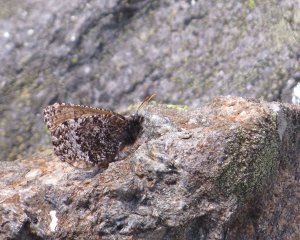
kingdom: Animalia
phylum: Arthropoda
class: Insecta
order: Lepidoptera
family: Nymphalidae
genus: Oeneis
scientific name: Oeneis melissa
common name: Melissa Arctic
